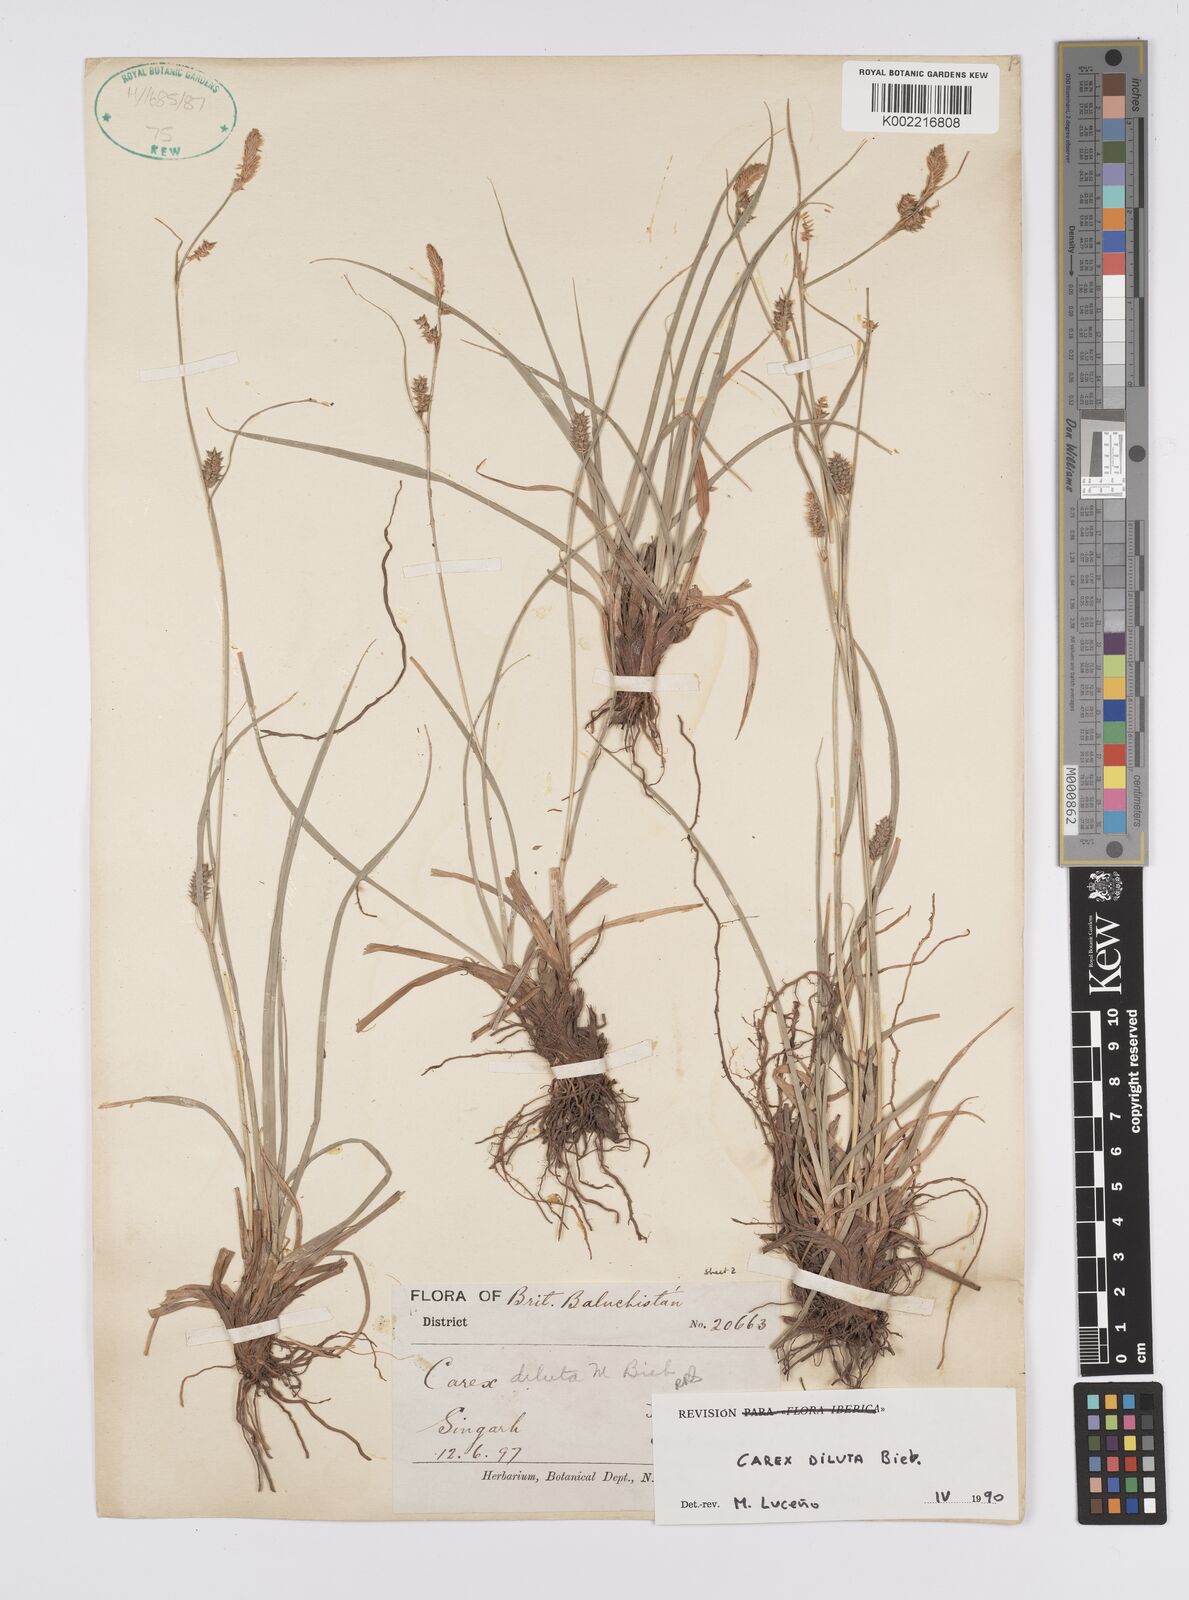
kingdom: Plantae
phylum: Tracheophyta
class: Liliopsida
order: Poales
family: Cyperaceae
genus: Carex
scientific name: Carex diluta
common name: Sedge
